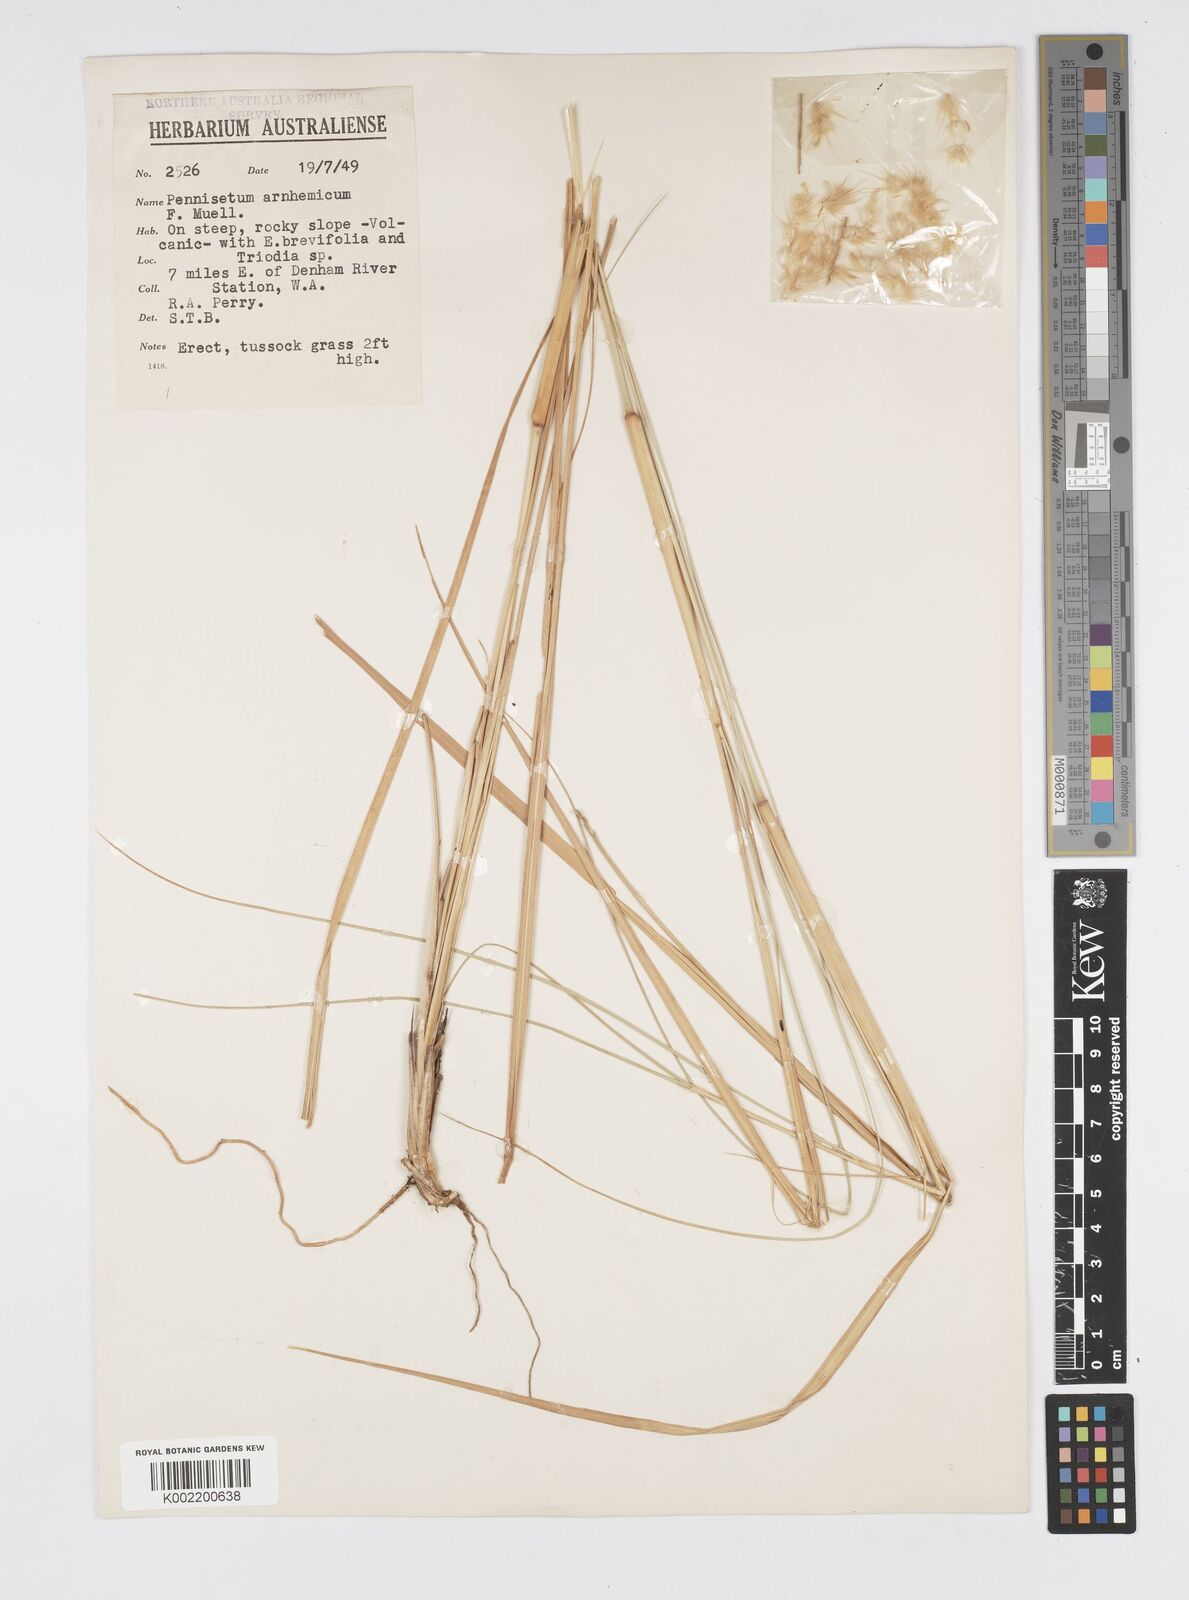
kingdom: Plantae
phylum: Tracheophyta
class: Liliopsida
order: Poales
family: Poaceae
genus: Cenchrus
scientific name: Cenchrus arnhemicus
